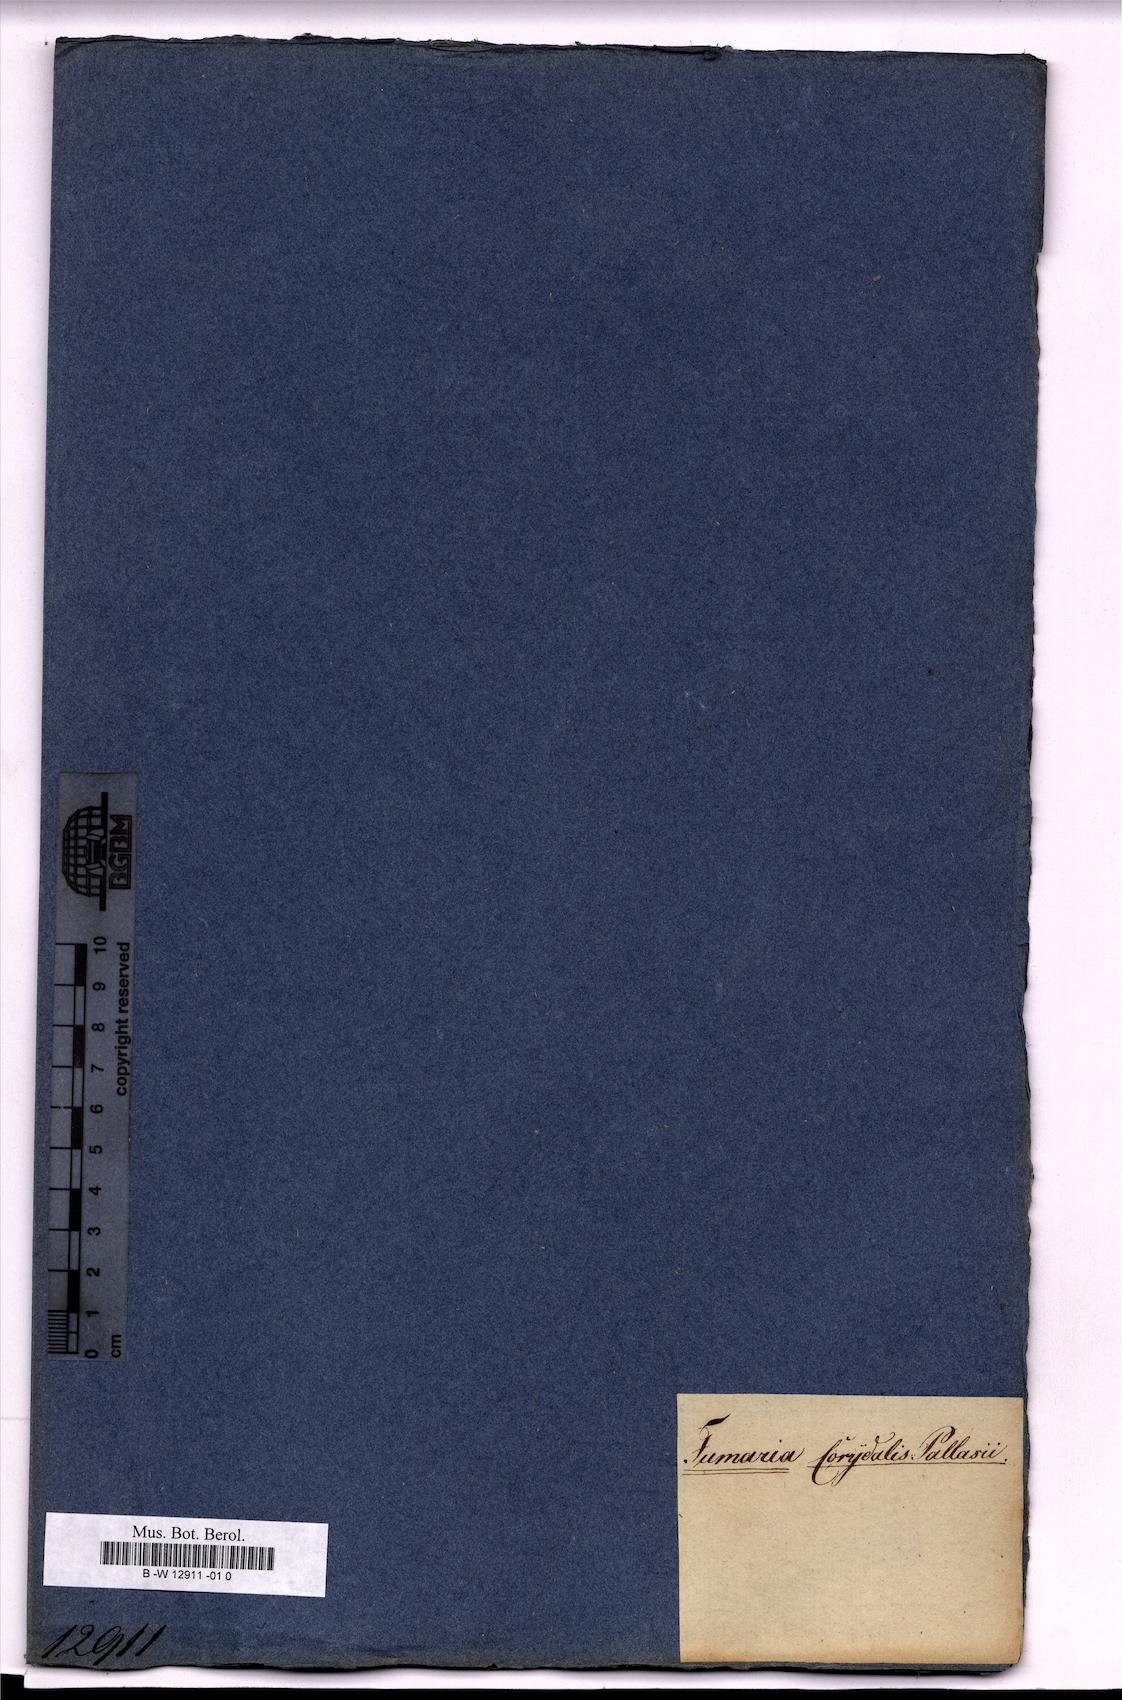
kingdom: Plantae
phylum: Tracheophyta
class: Magnoliopsida
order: Ranunculales
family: Papaveraceae
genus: Fumaria
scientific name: Fumaria
